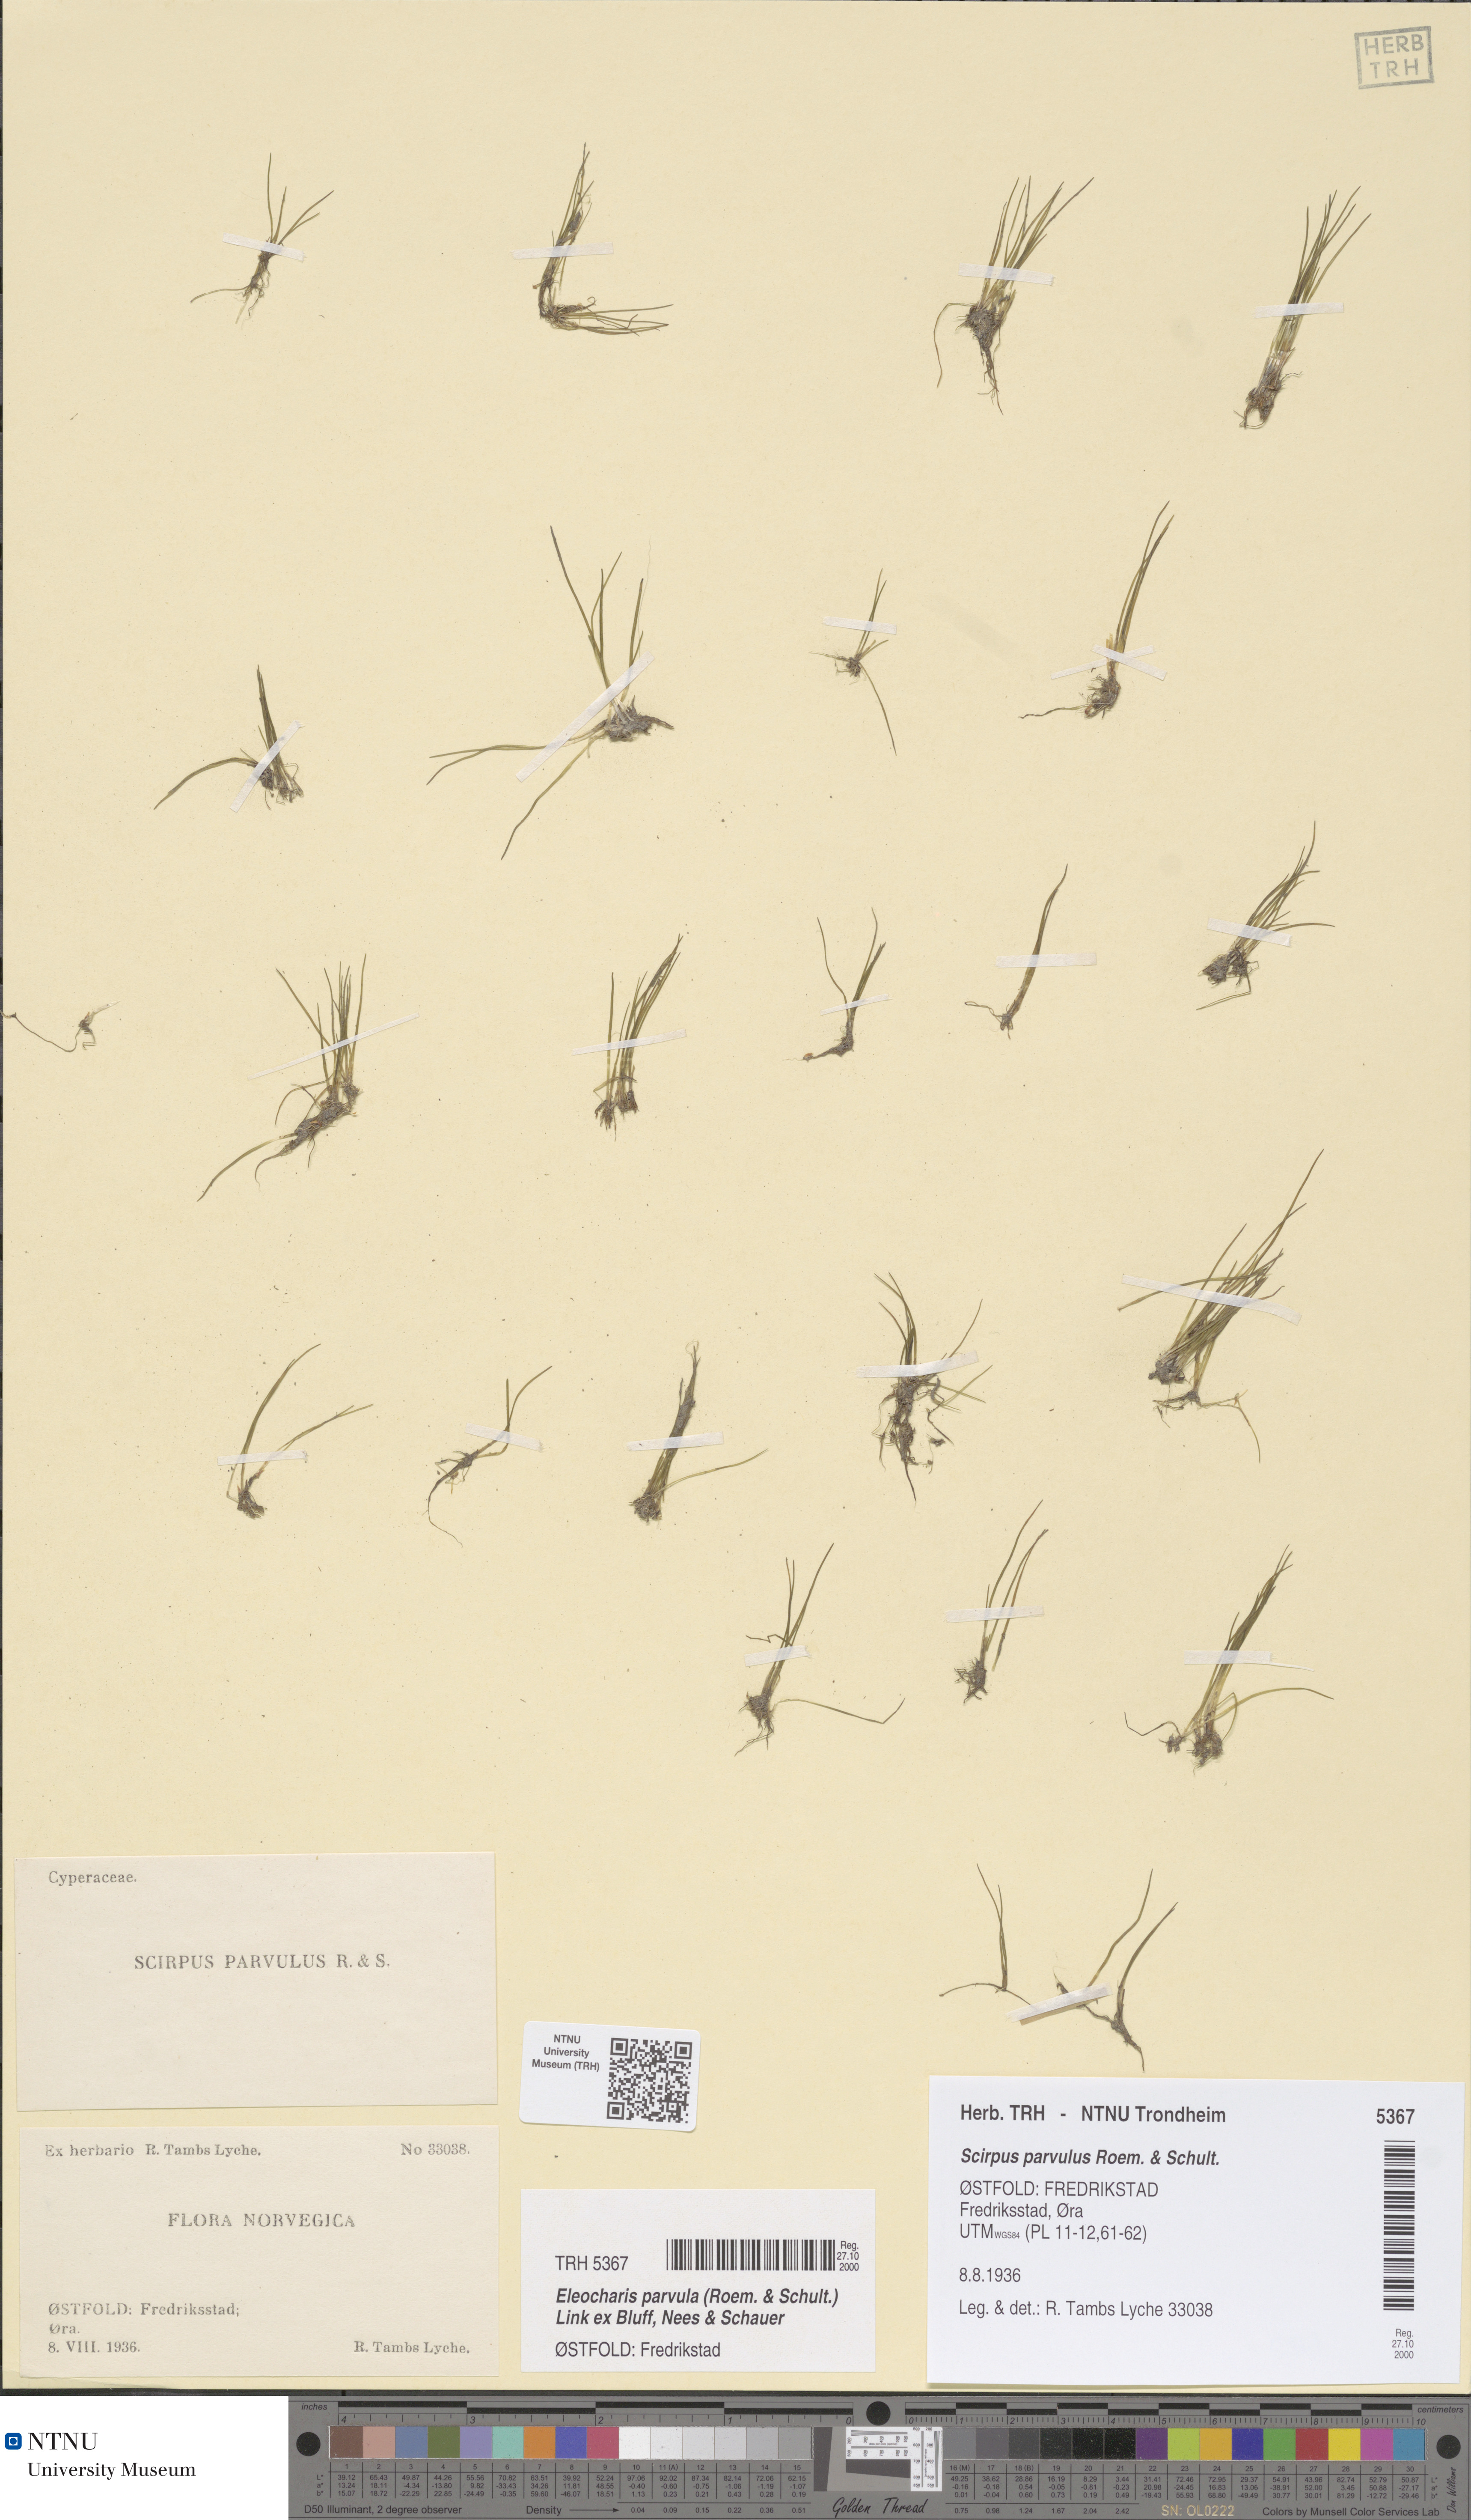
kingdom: Plantae
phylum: Tracheophyta
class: Liliopsida
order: Poales
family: Cyperaceae
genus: Eleocharis
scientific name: Eleocharis parvula
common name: Dwarf spike-rush
